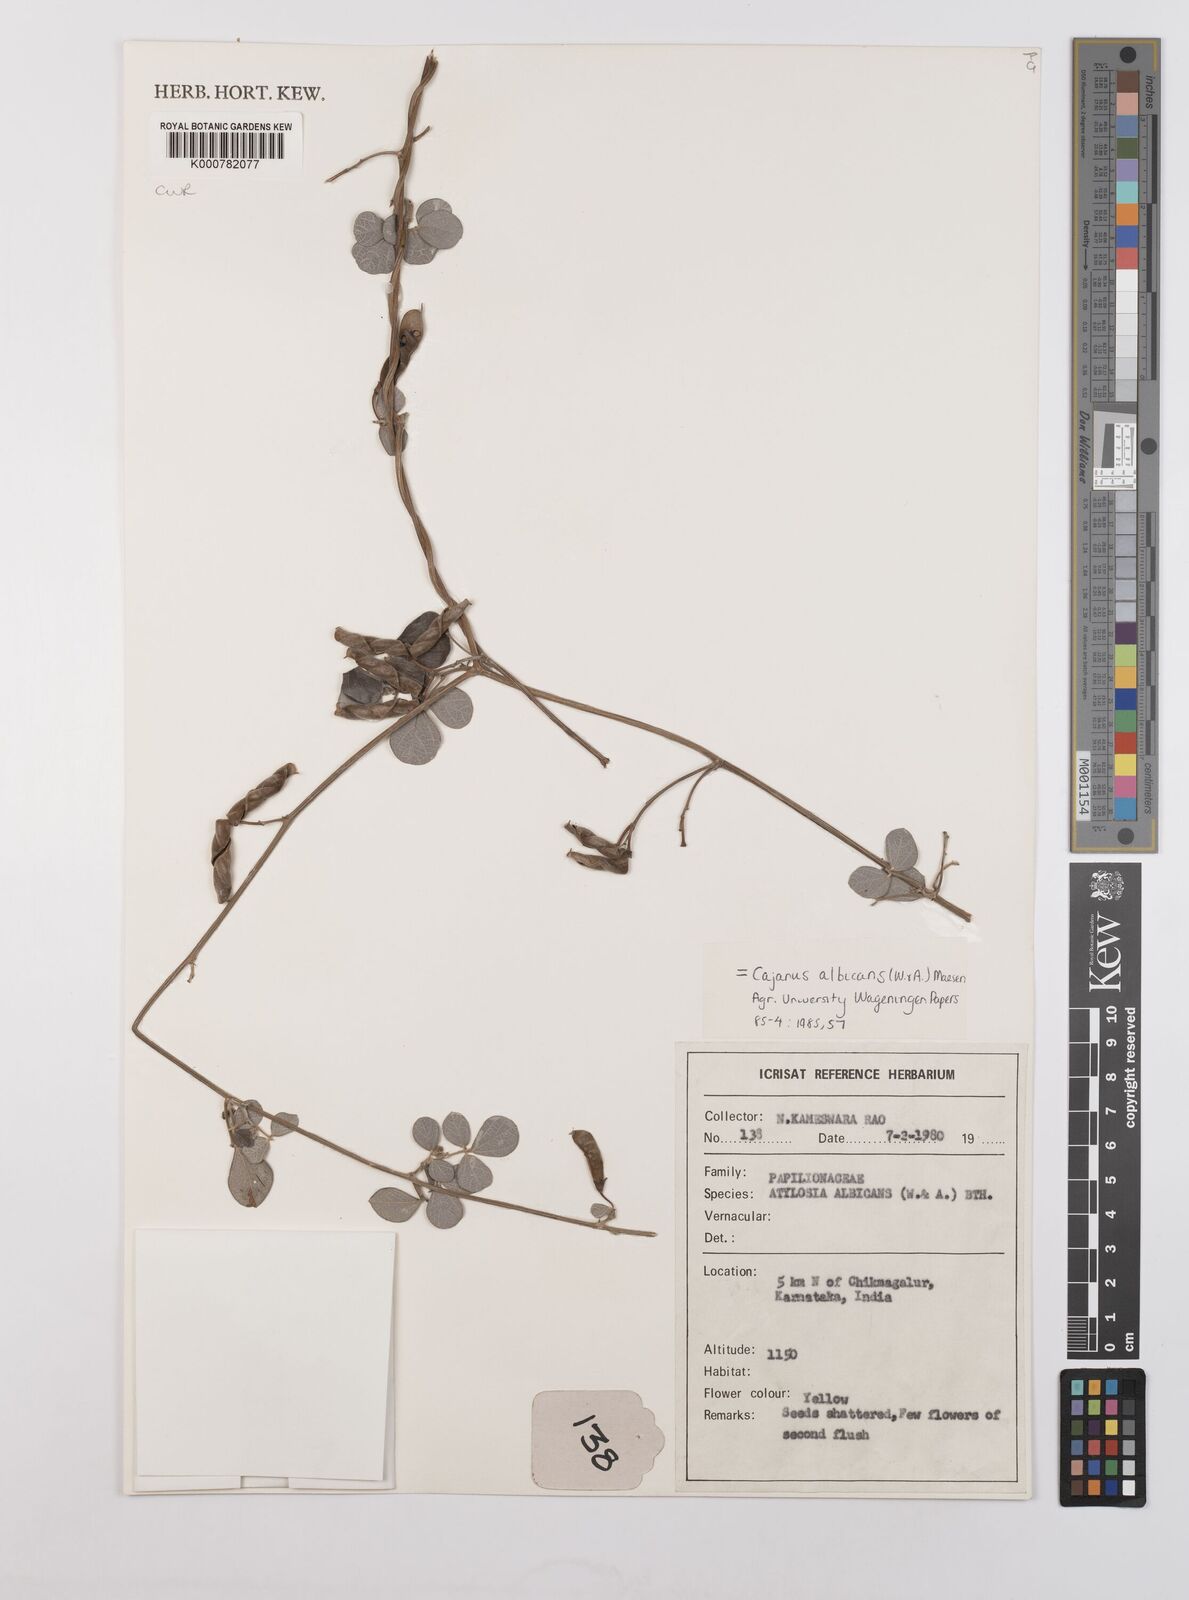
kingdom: Plantae
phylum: Tracheophyta
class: Magnoliopsida
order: Fabales
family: Fabaceae
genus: Cajanus
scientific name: Cajanus albicans
